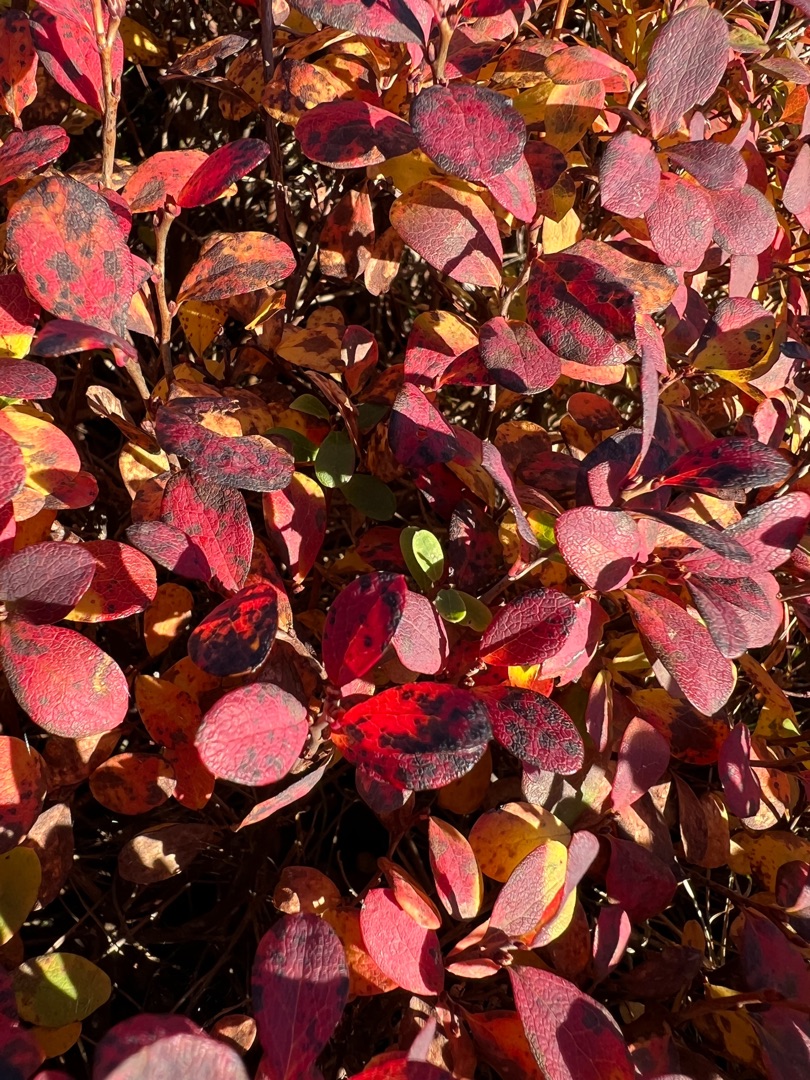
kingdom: Plantae
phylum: Tracheophyta
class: Magnoliopsida
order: Ericales
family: Ericaceae
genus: Vaccinium
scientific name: Vaccinium uliginosum
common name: Mose-bølle
